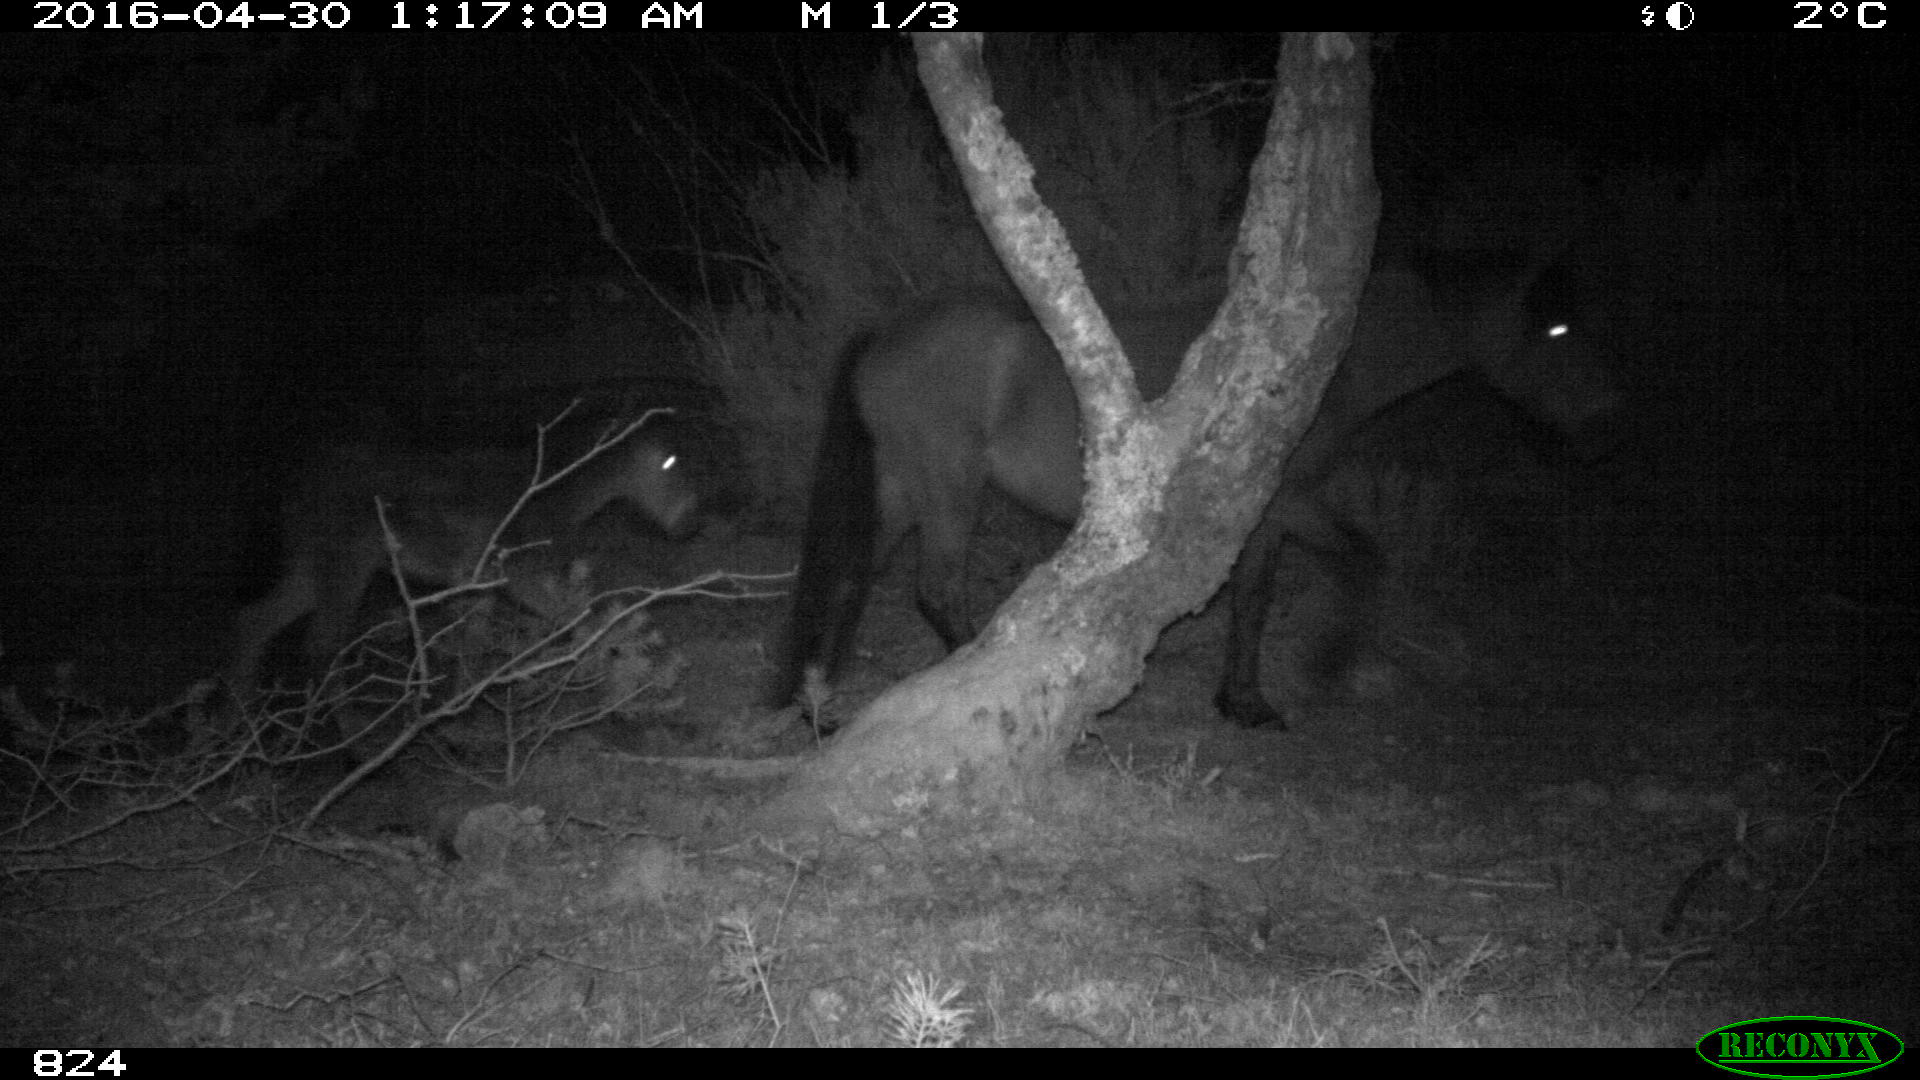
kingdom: Animalia
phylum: Chordata
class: Mammalia
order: Perissodactyla
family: Equidae
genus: Equus
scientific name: Equus caballus
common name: Horse
